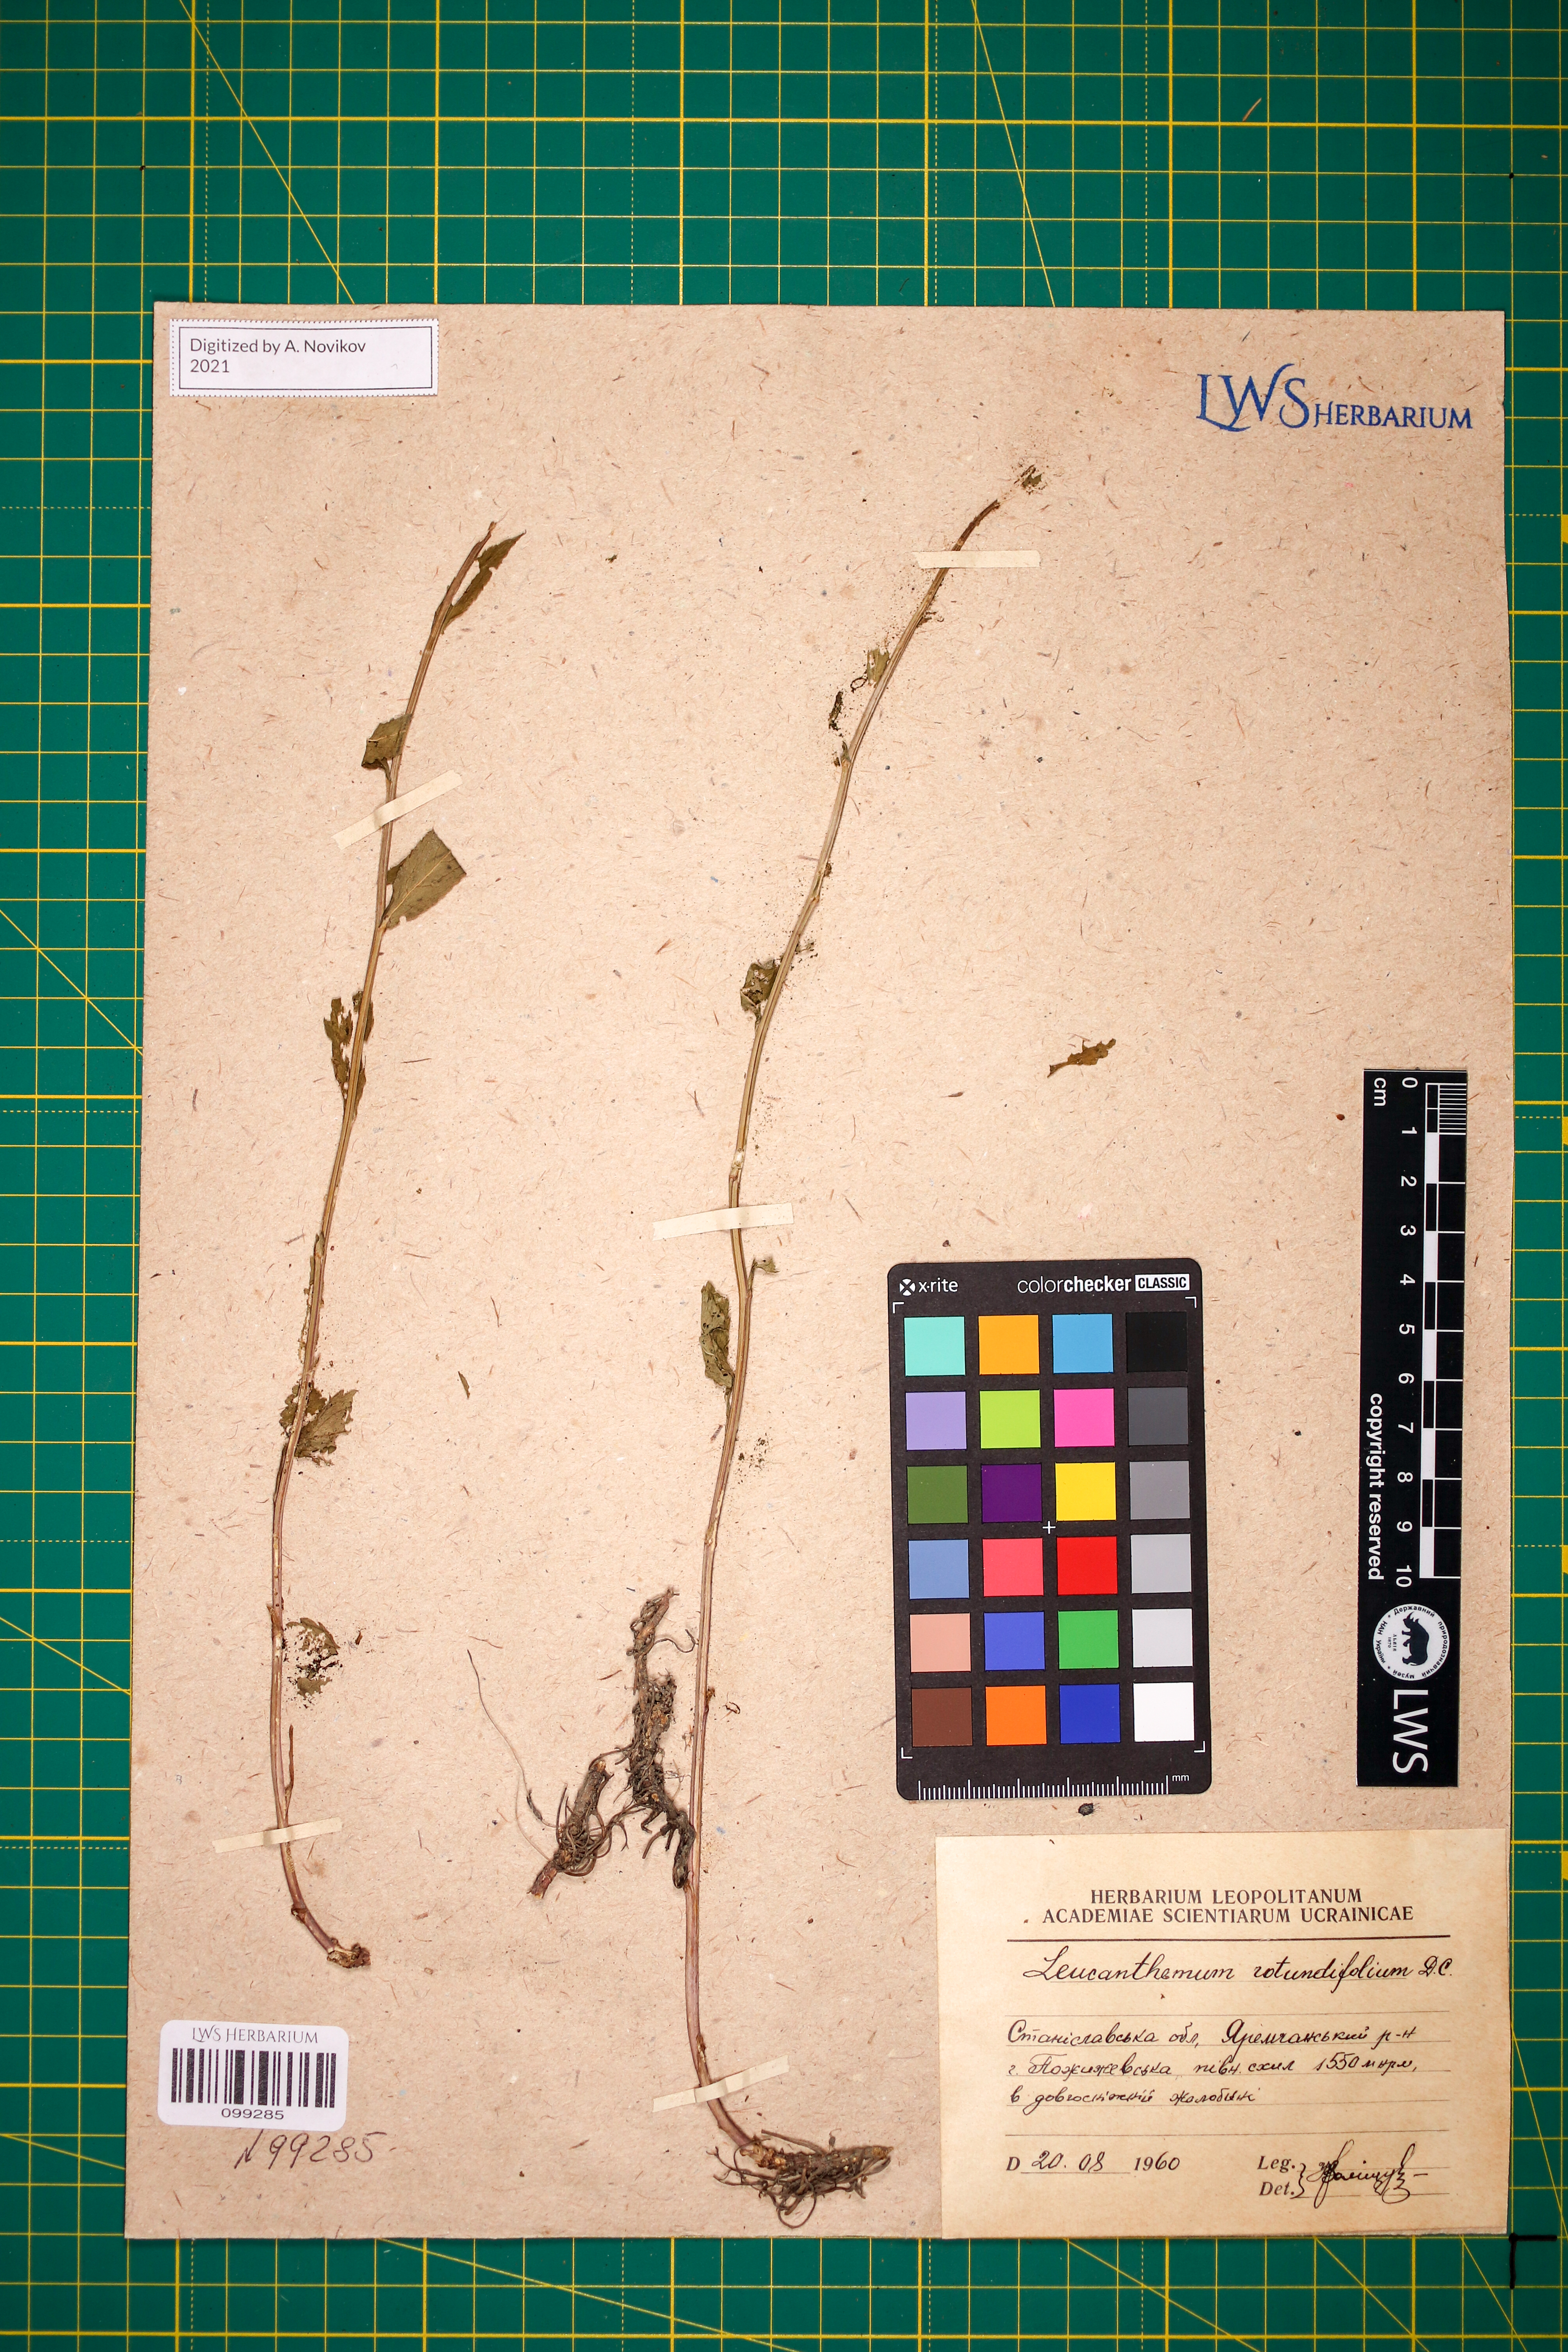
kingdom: Plantae
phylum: Tracheophyta
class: Magnoliopsida
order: Asterales
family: Asteraceae
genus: Leucanthemum
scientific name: Leucanthemum rotundifolium
